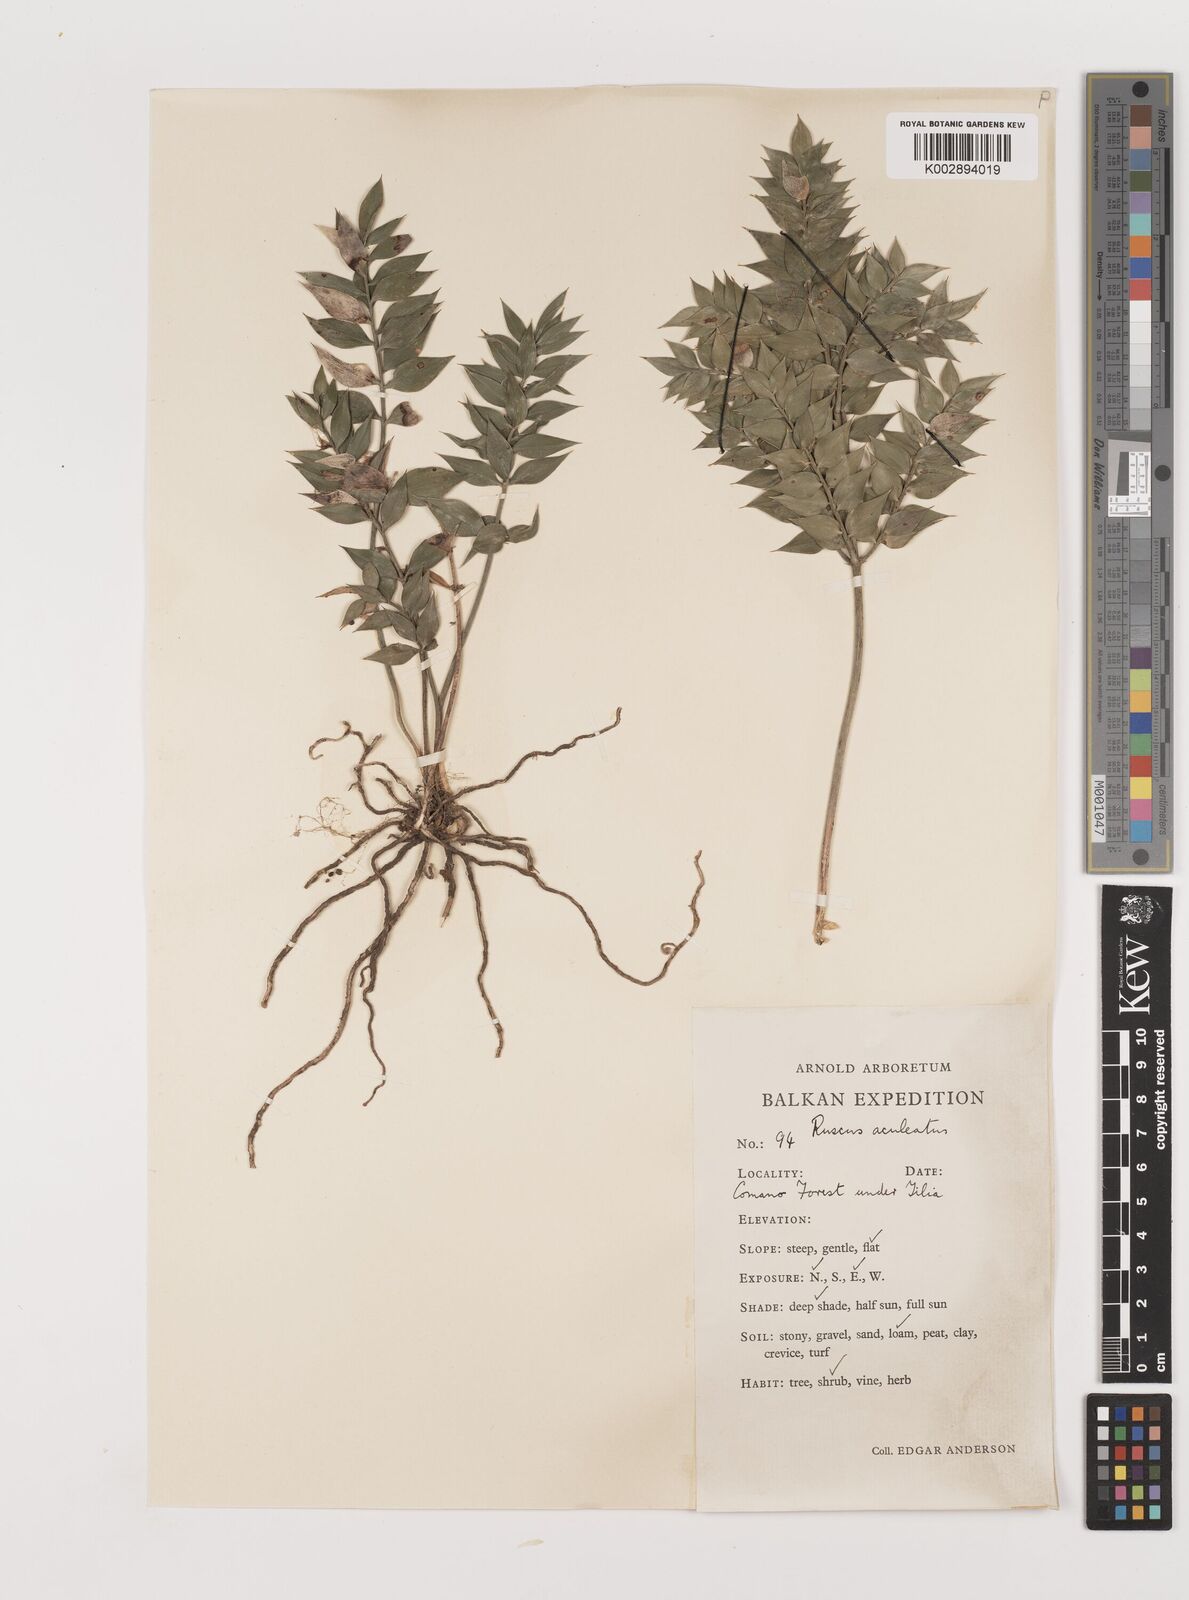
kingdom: Plantae
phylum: Tracheophyta
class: Liliopsida
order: Asparagales
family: Asparagaceae
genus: Ruscus
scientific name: Ruscus aculeatus
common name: Butcher's-broom
